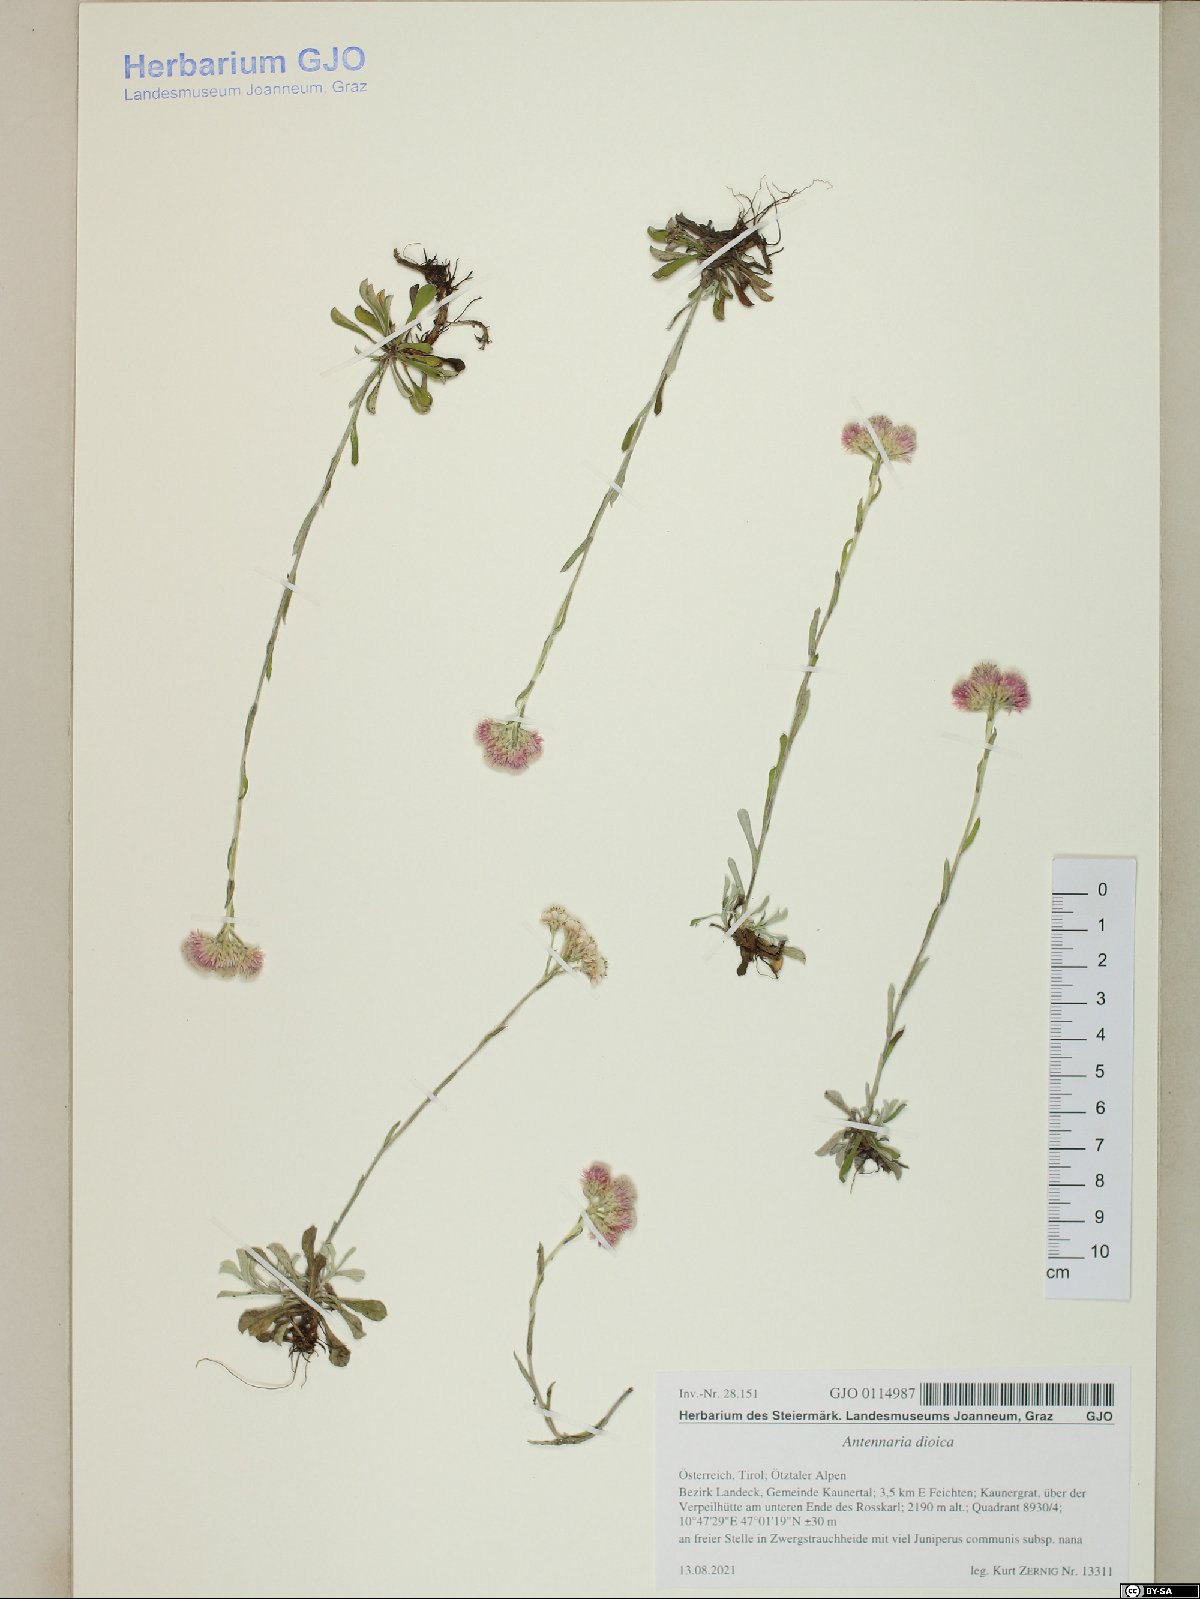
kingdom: Plantae
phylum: Tracheophyta
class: Magnoliopsida
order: Asterales
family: Asteraceae
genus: Antennaria
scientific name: Antennaria dioica
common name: Mountain everlasting
